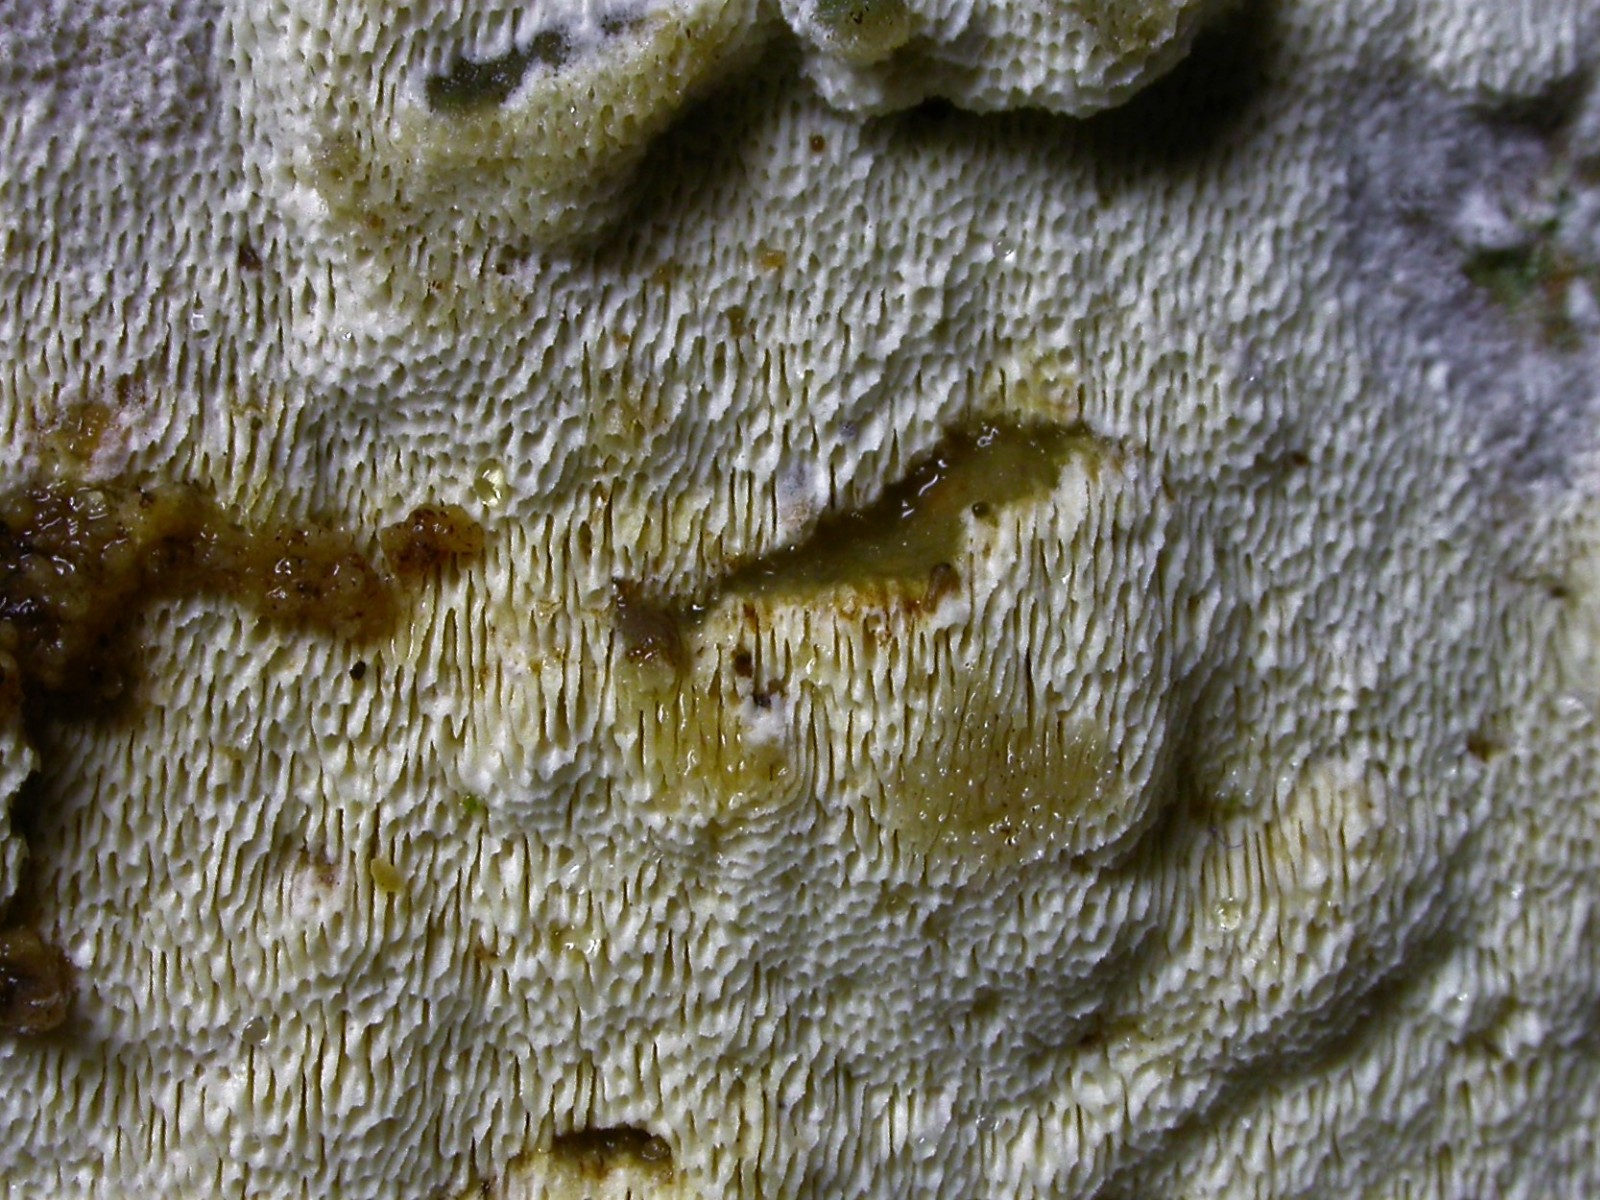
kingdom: Fungi
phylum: Basidiomycota
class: Agaricomycetes
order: Hymenochaetales
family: Schizoporaceae
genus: Schizopora
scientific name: Schizopora paradoxa
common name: hvid tandsvamp
